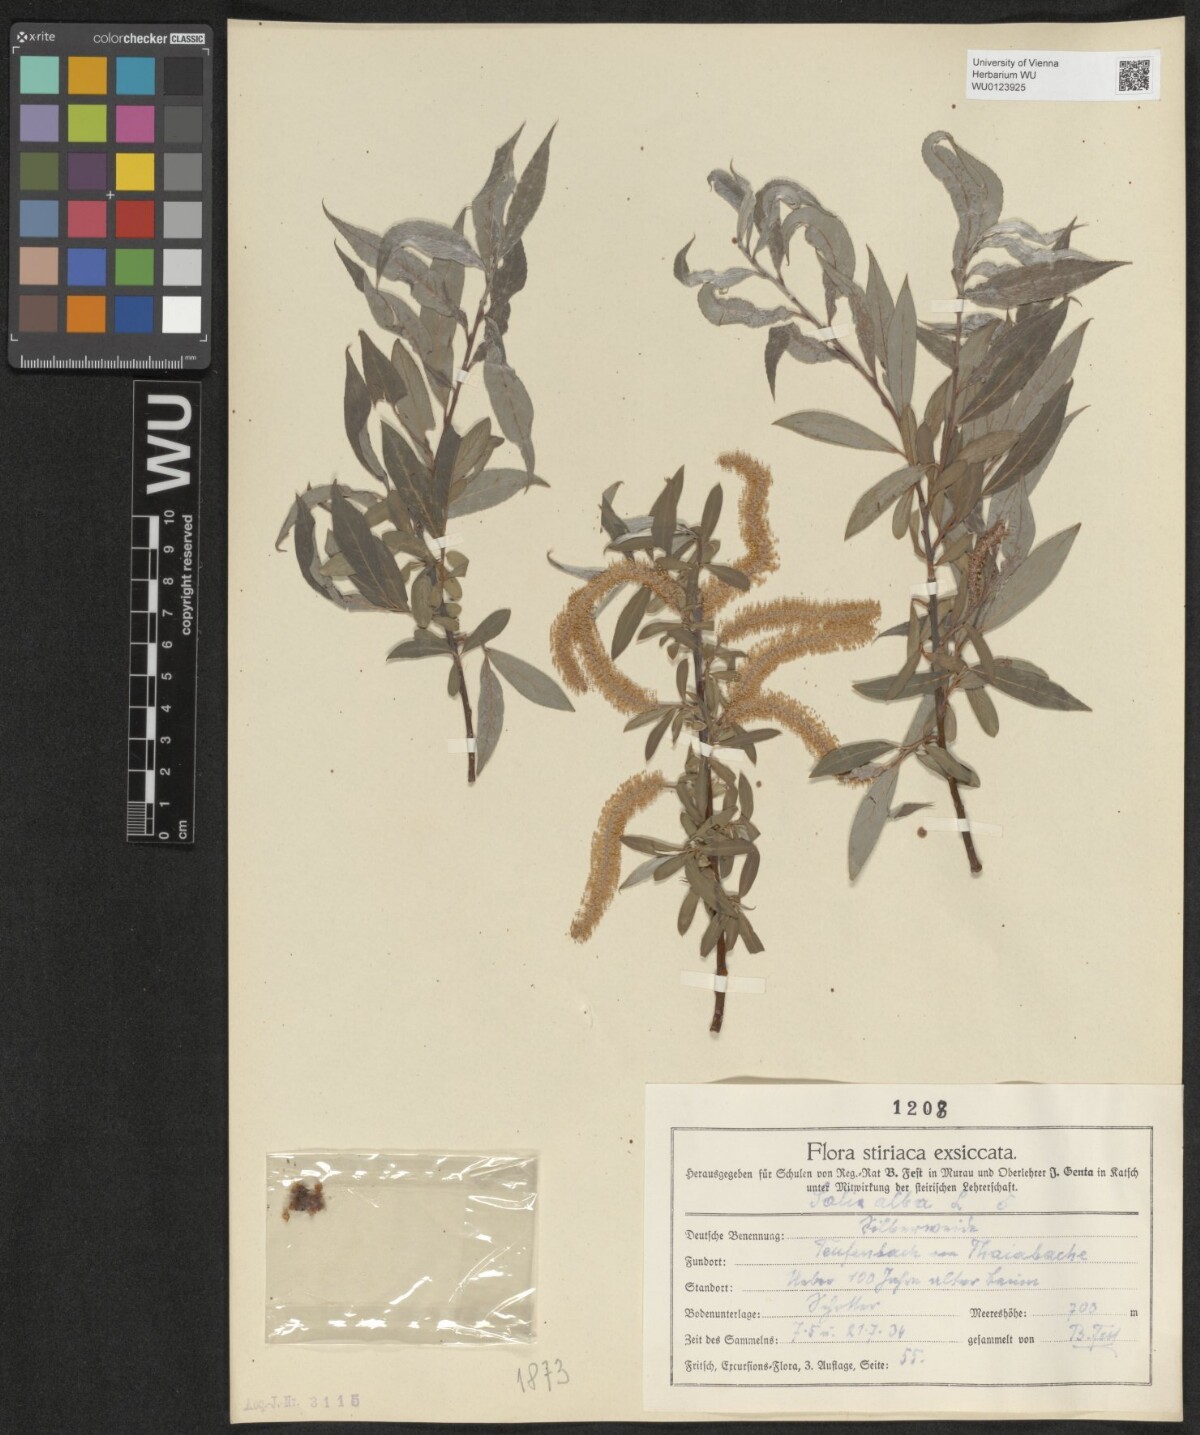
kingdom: Plantae
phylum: Tracheophyta
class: Magnoliopsida
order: Malpighiales
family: Salicaceae
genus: Salix
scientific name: Salix alba
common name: White willow
